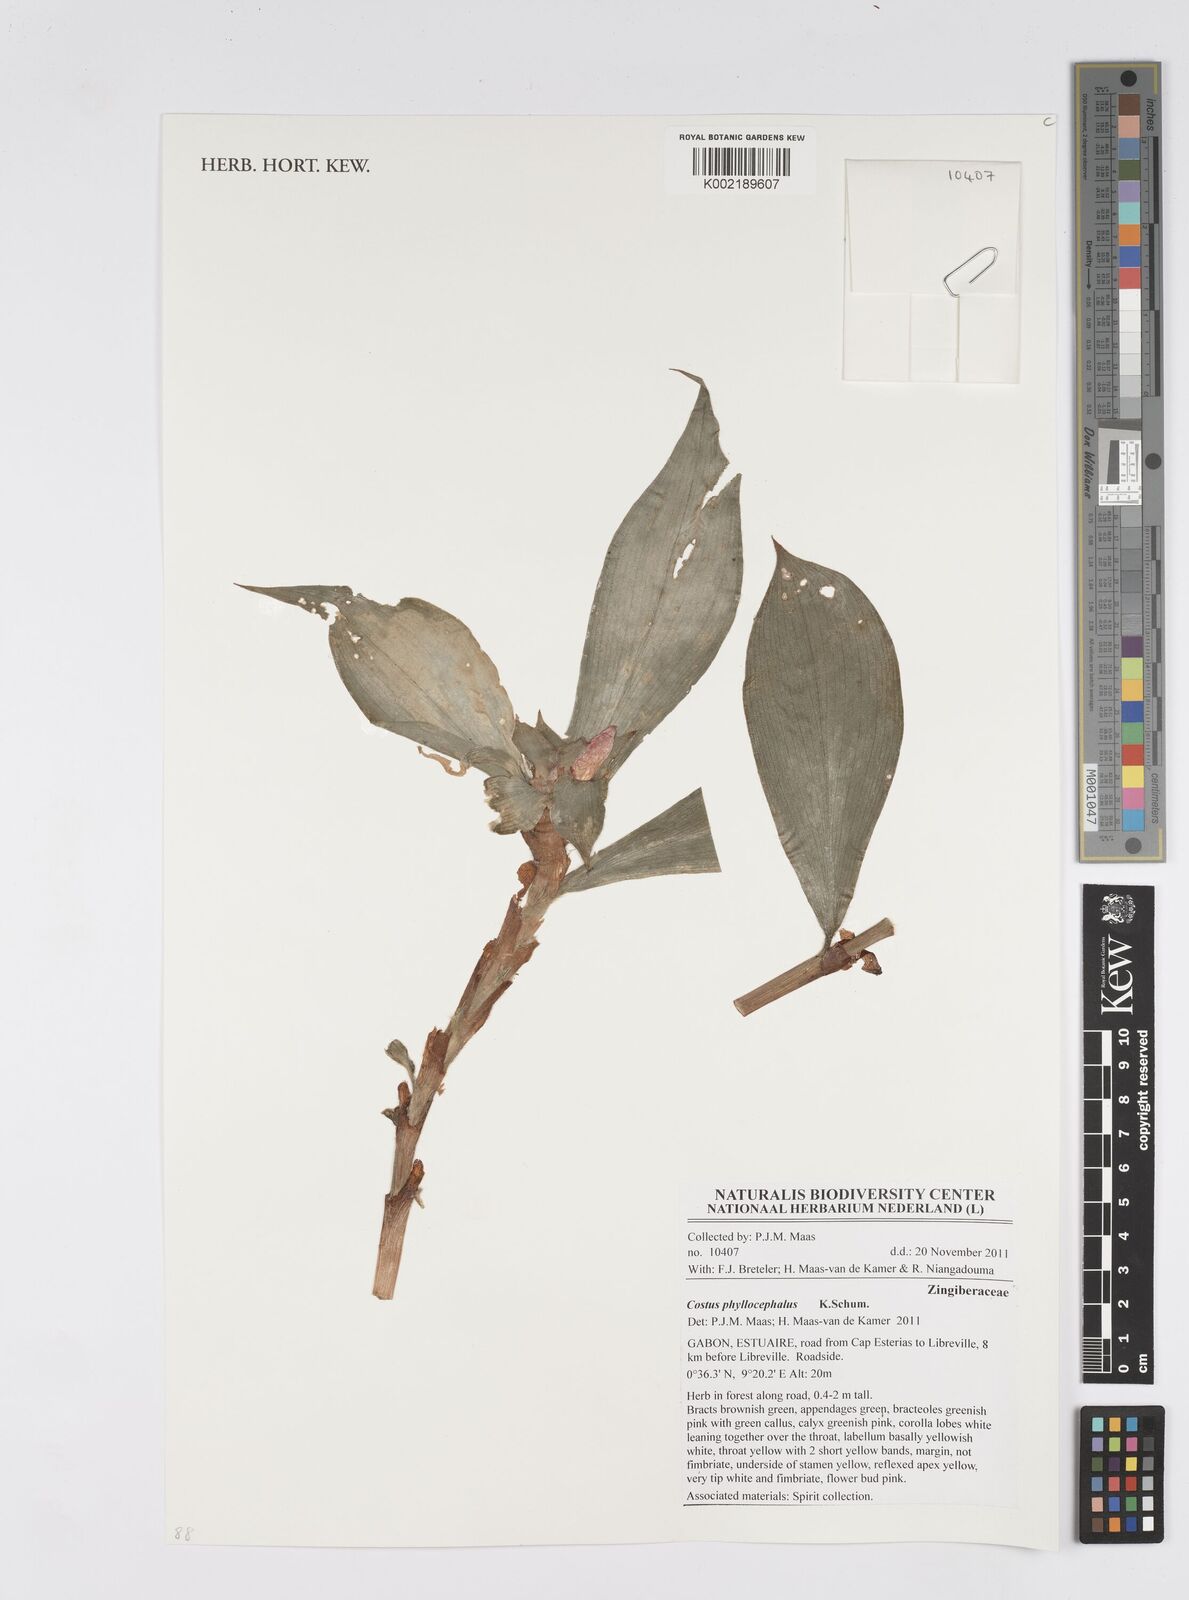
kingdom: Plantae
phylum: Tracheophyta
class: Liliopsida
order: Zingiberales
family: Costaceae
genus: Costus
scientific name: Costus phyllocephalus
